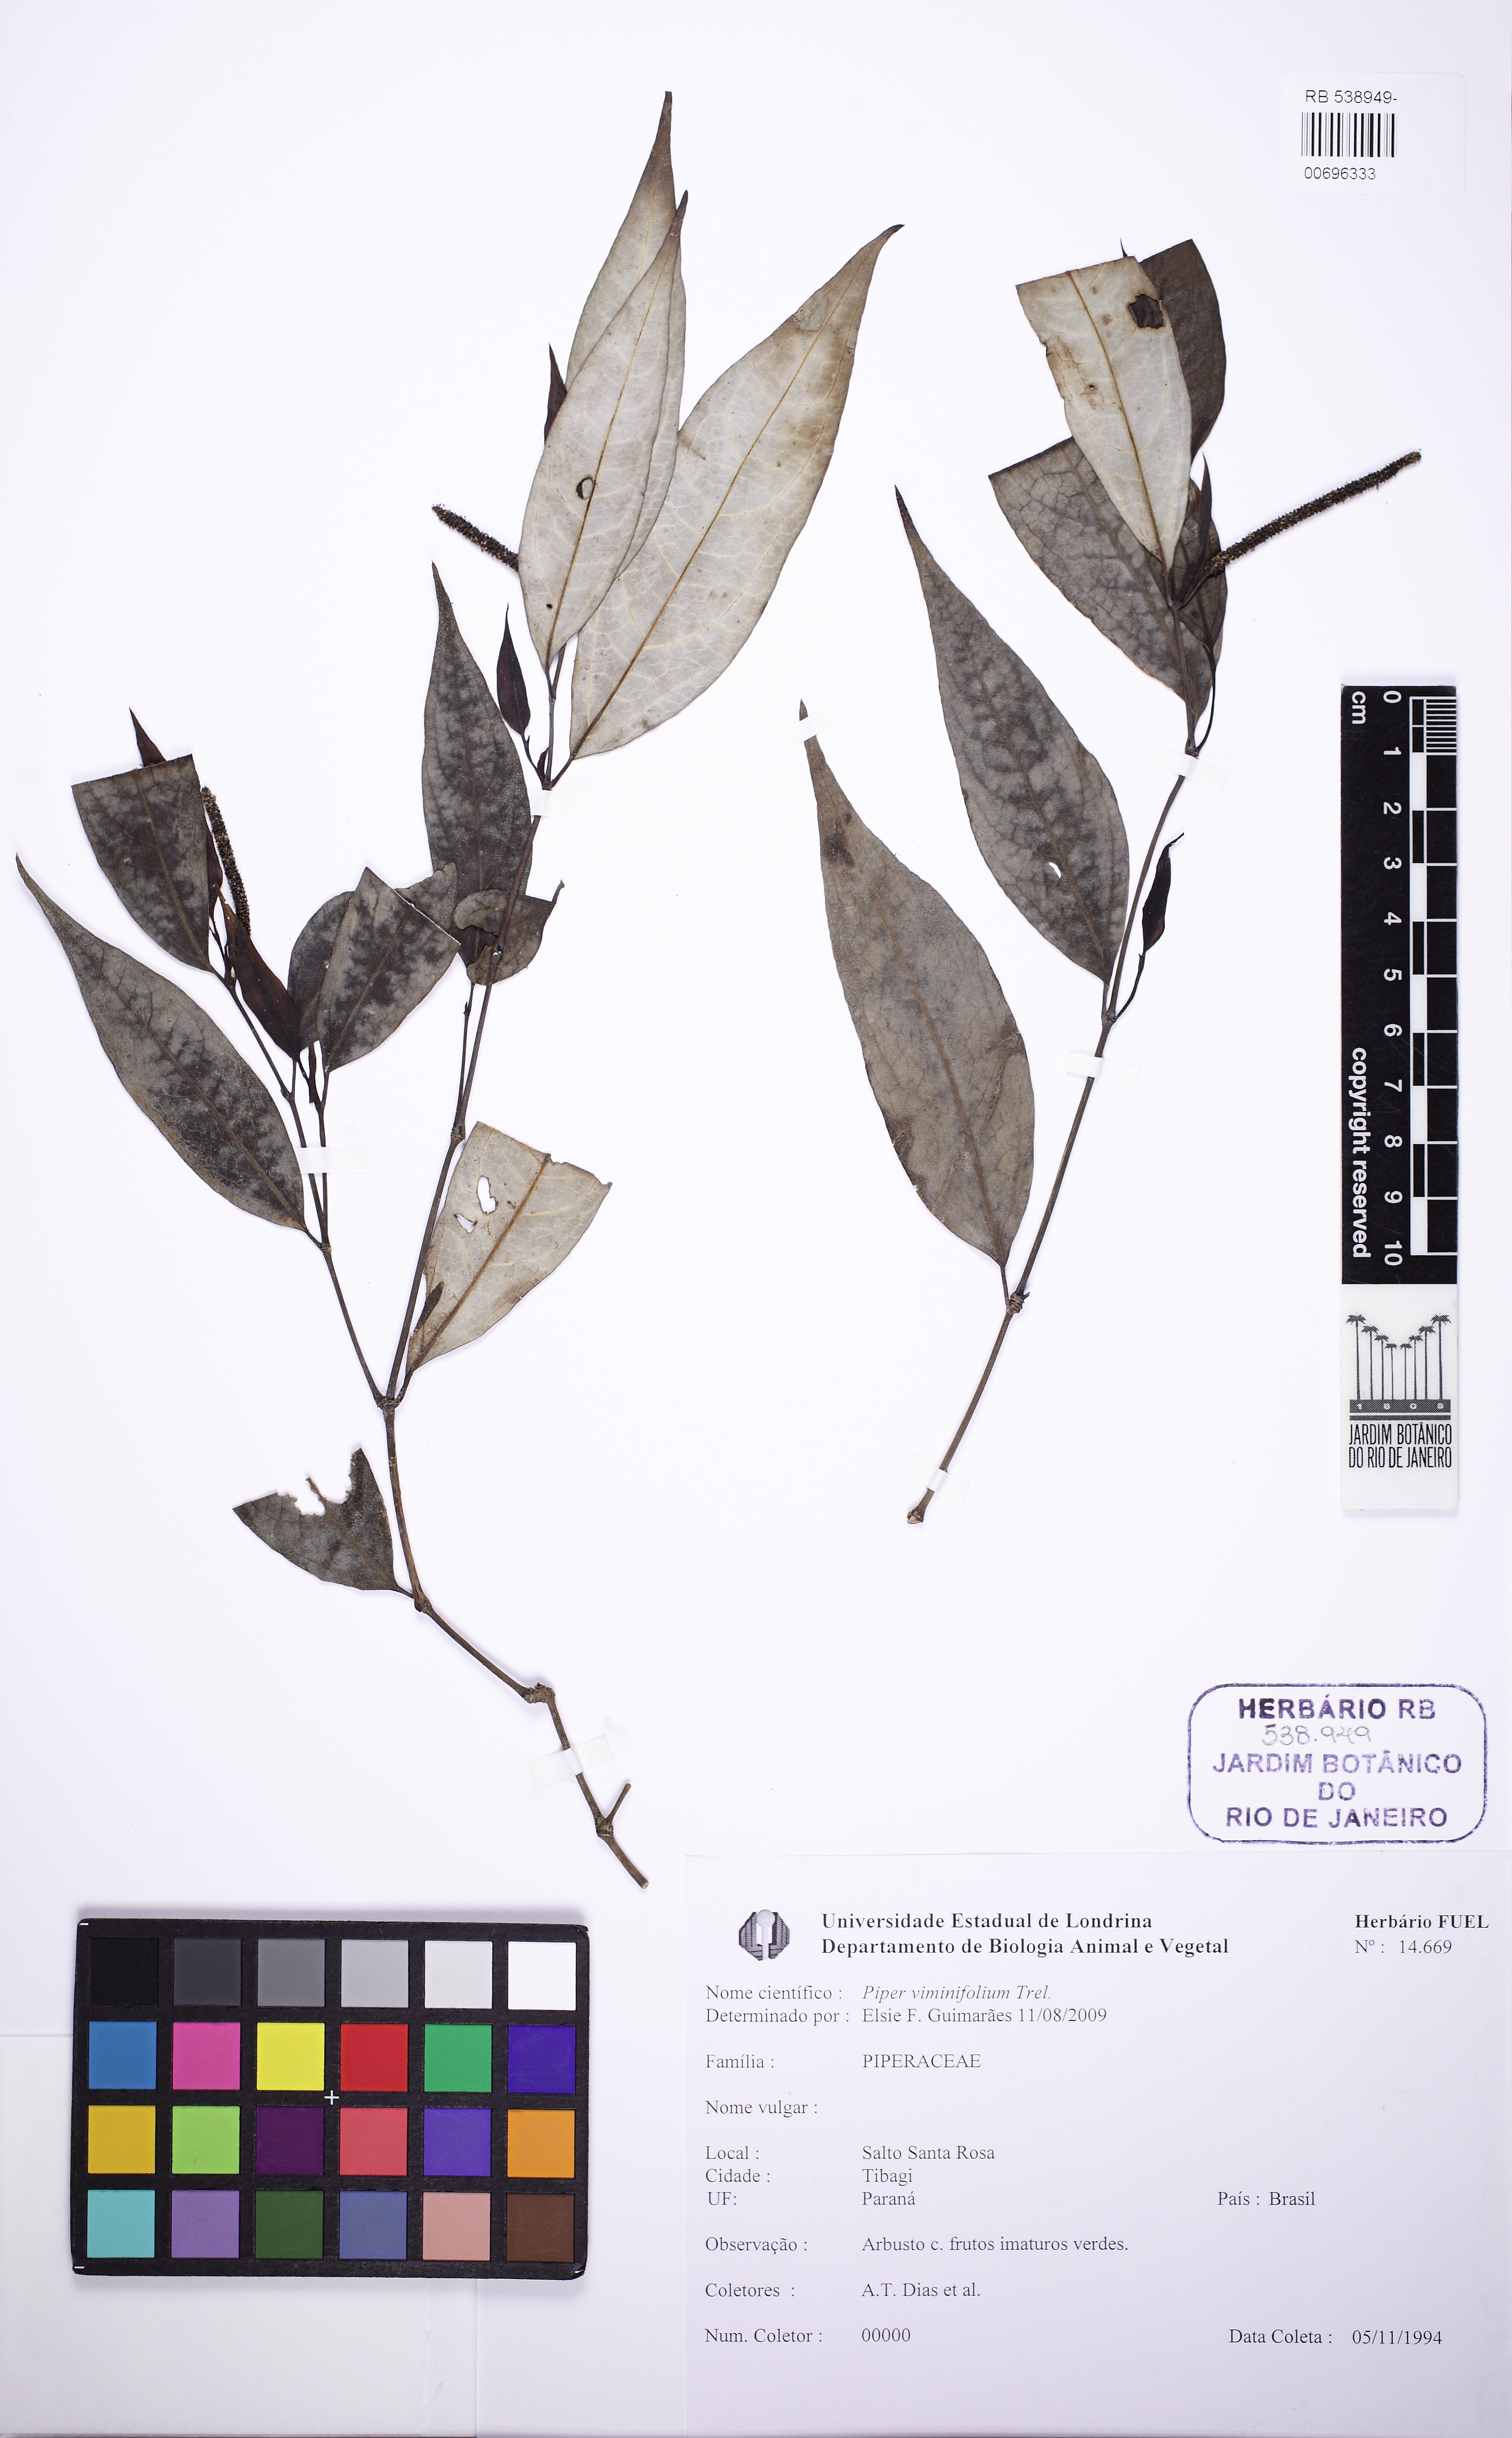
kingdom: Plantae
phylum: Tracheophyta
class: Magnoliopsida
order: Piperales
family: Piperaceae
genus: Piper
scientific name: Piper viminifolium
